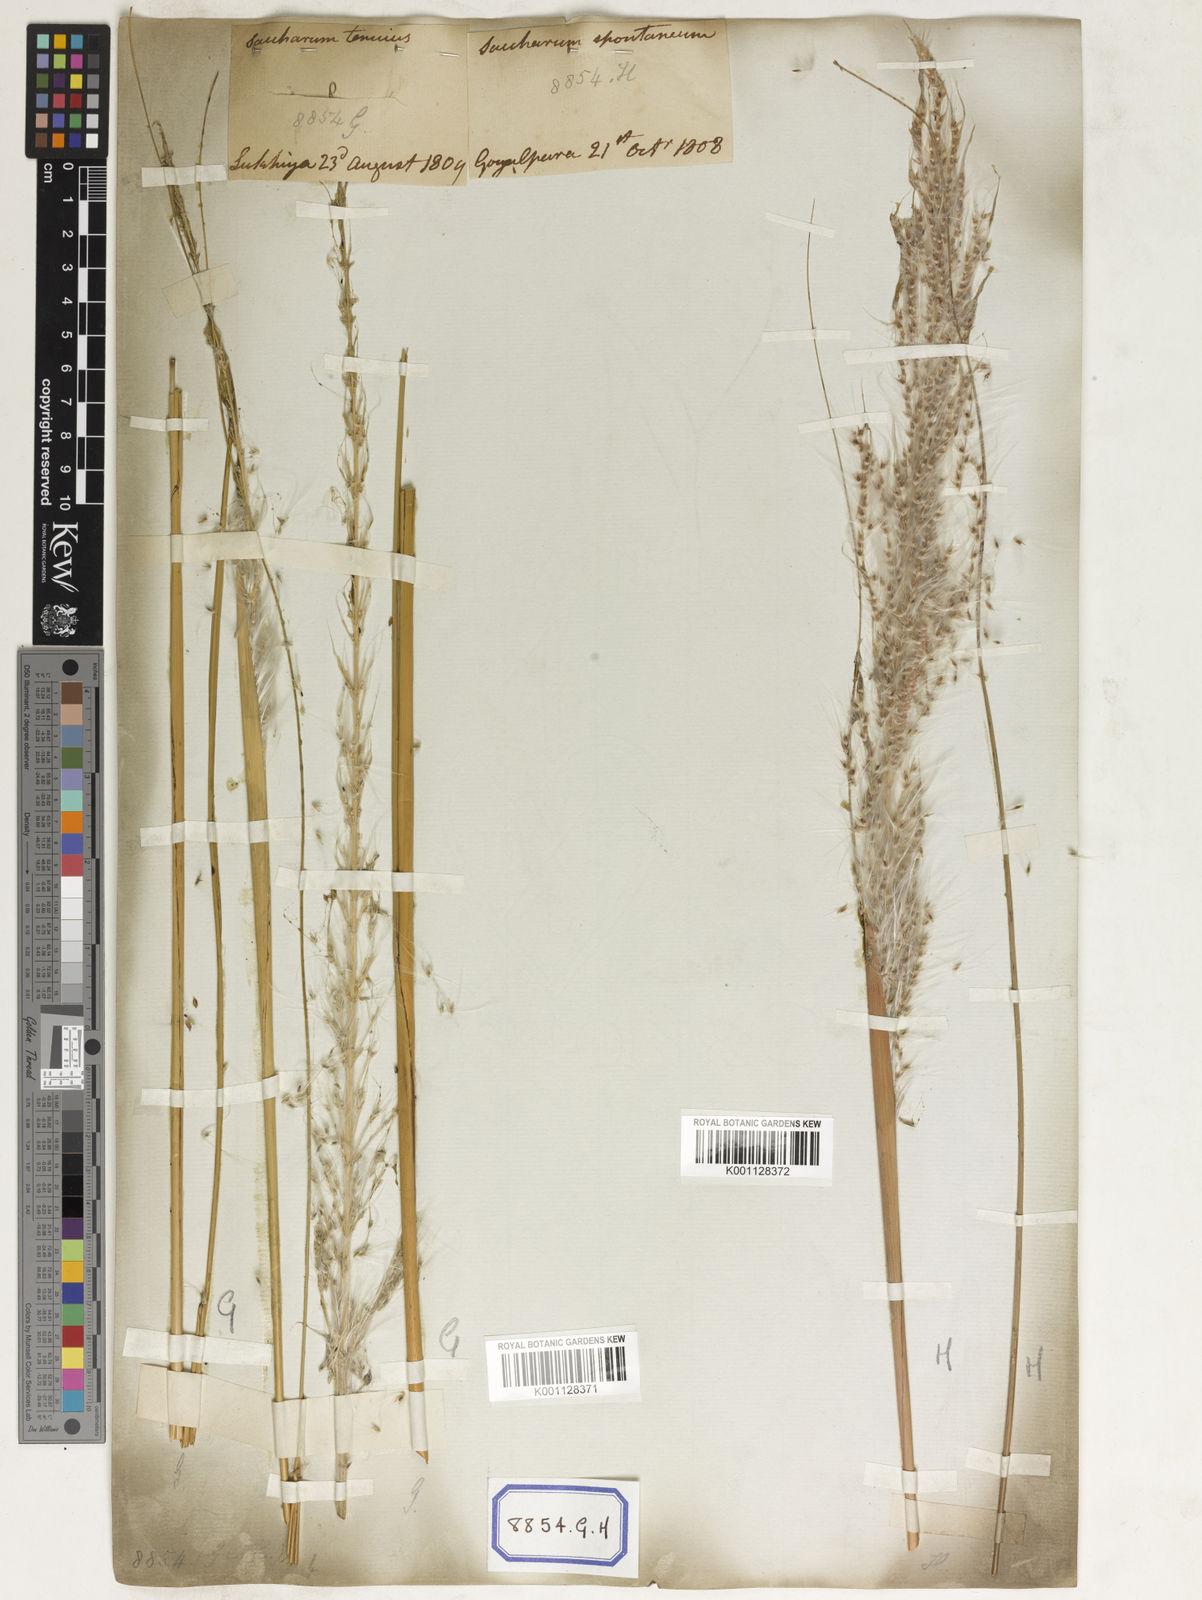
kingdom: Plantae
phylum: Tracheophyta
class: Liliopsida
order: Poales
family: Poaceae
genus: Saccharum
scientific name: Saccharum
